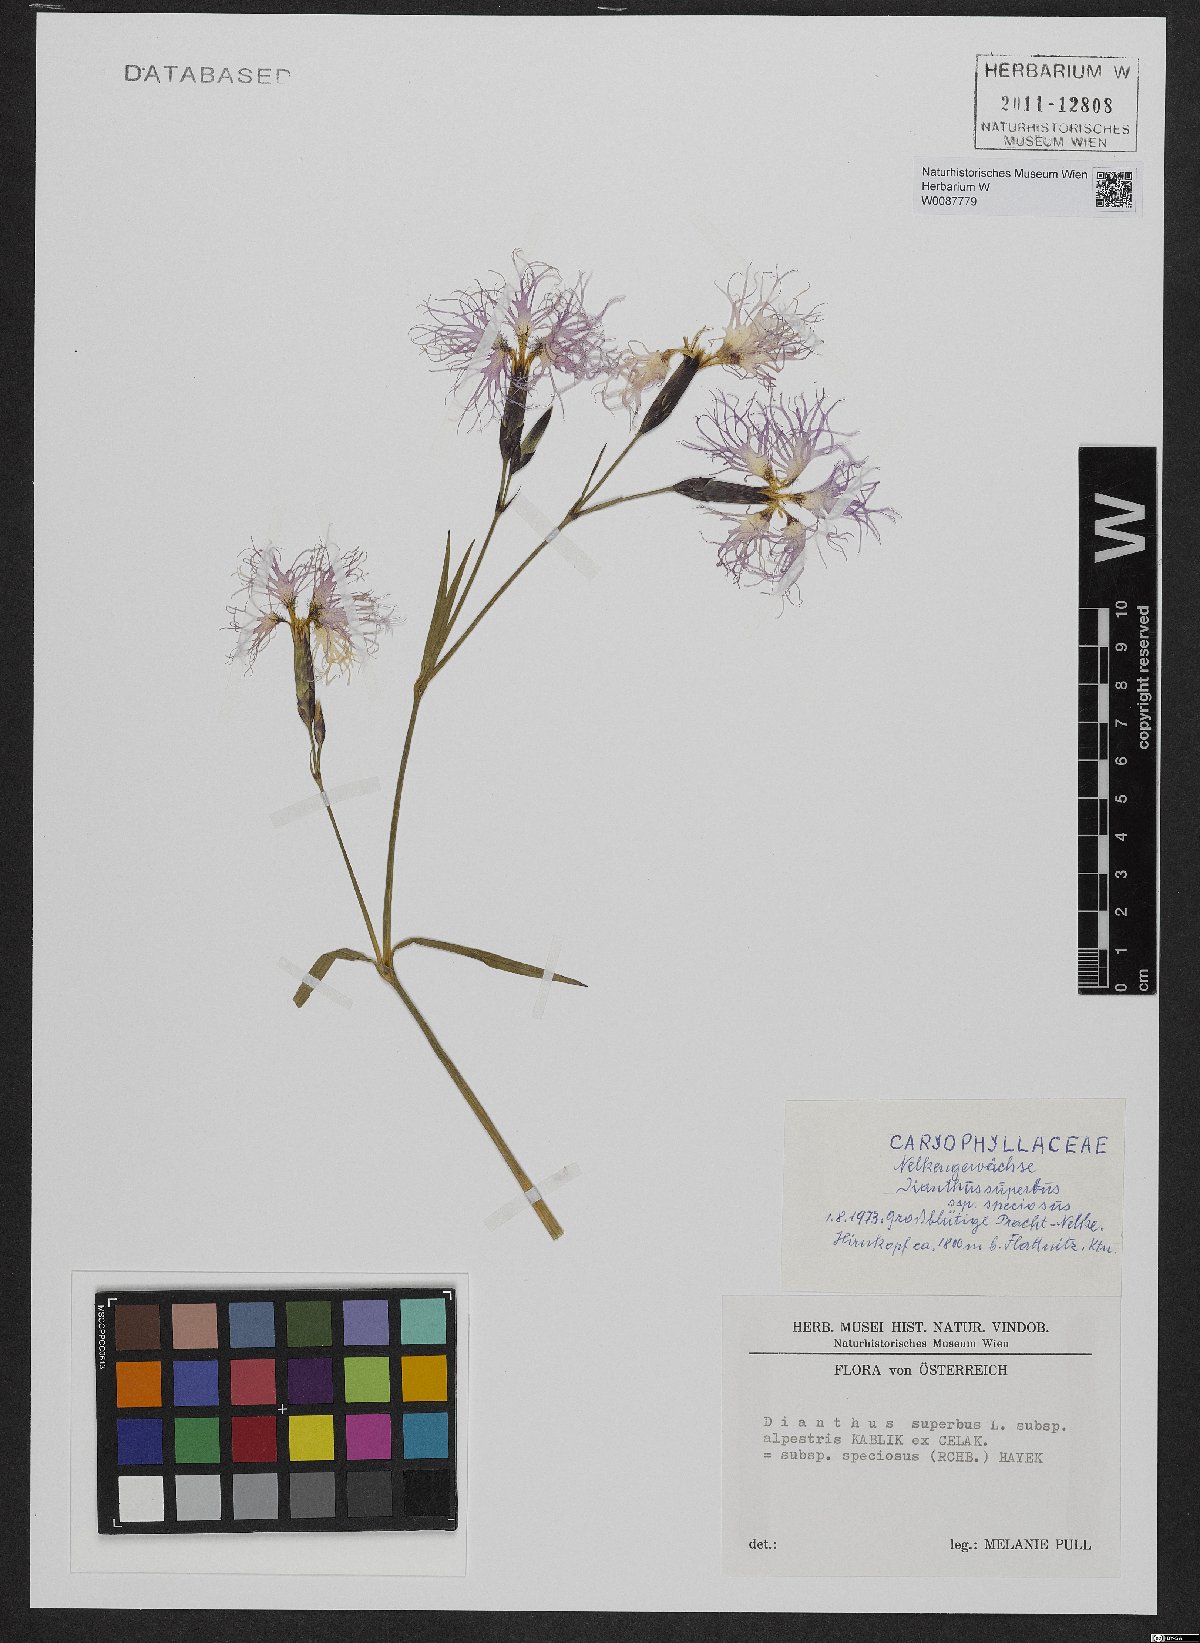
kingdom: Plantae
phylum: Tracheophyta
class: Magnoliopsida
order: Caryophyllales
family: Caryophyllaceae
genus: Dianthus
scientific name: Dianthus superbus
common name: Fringed pink
